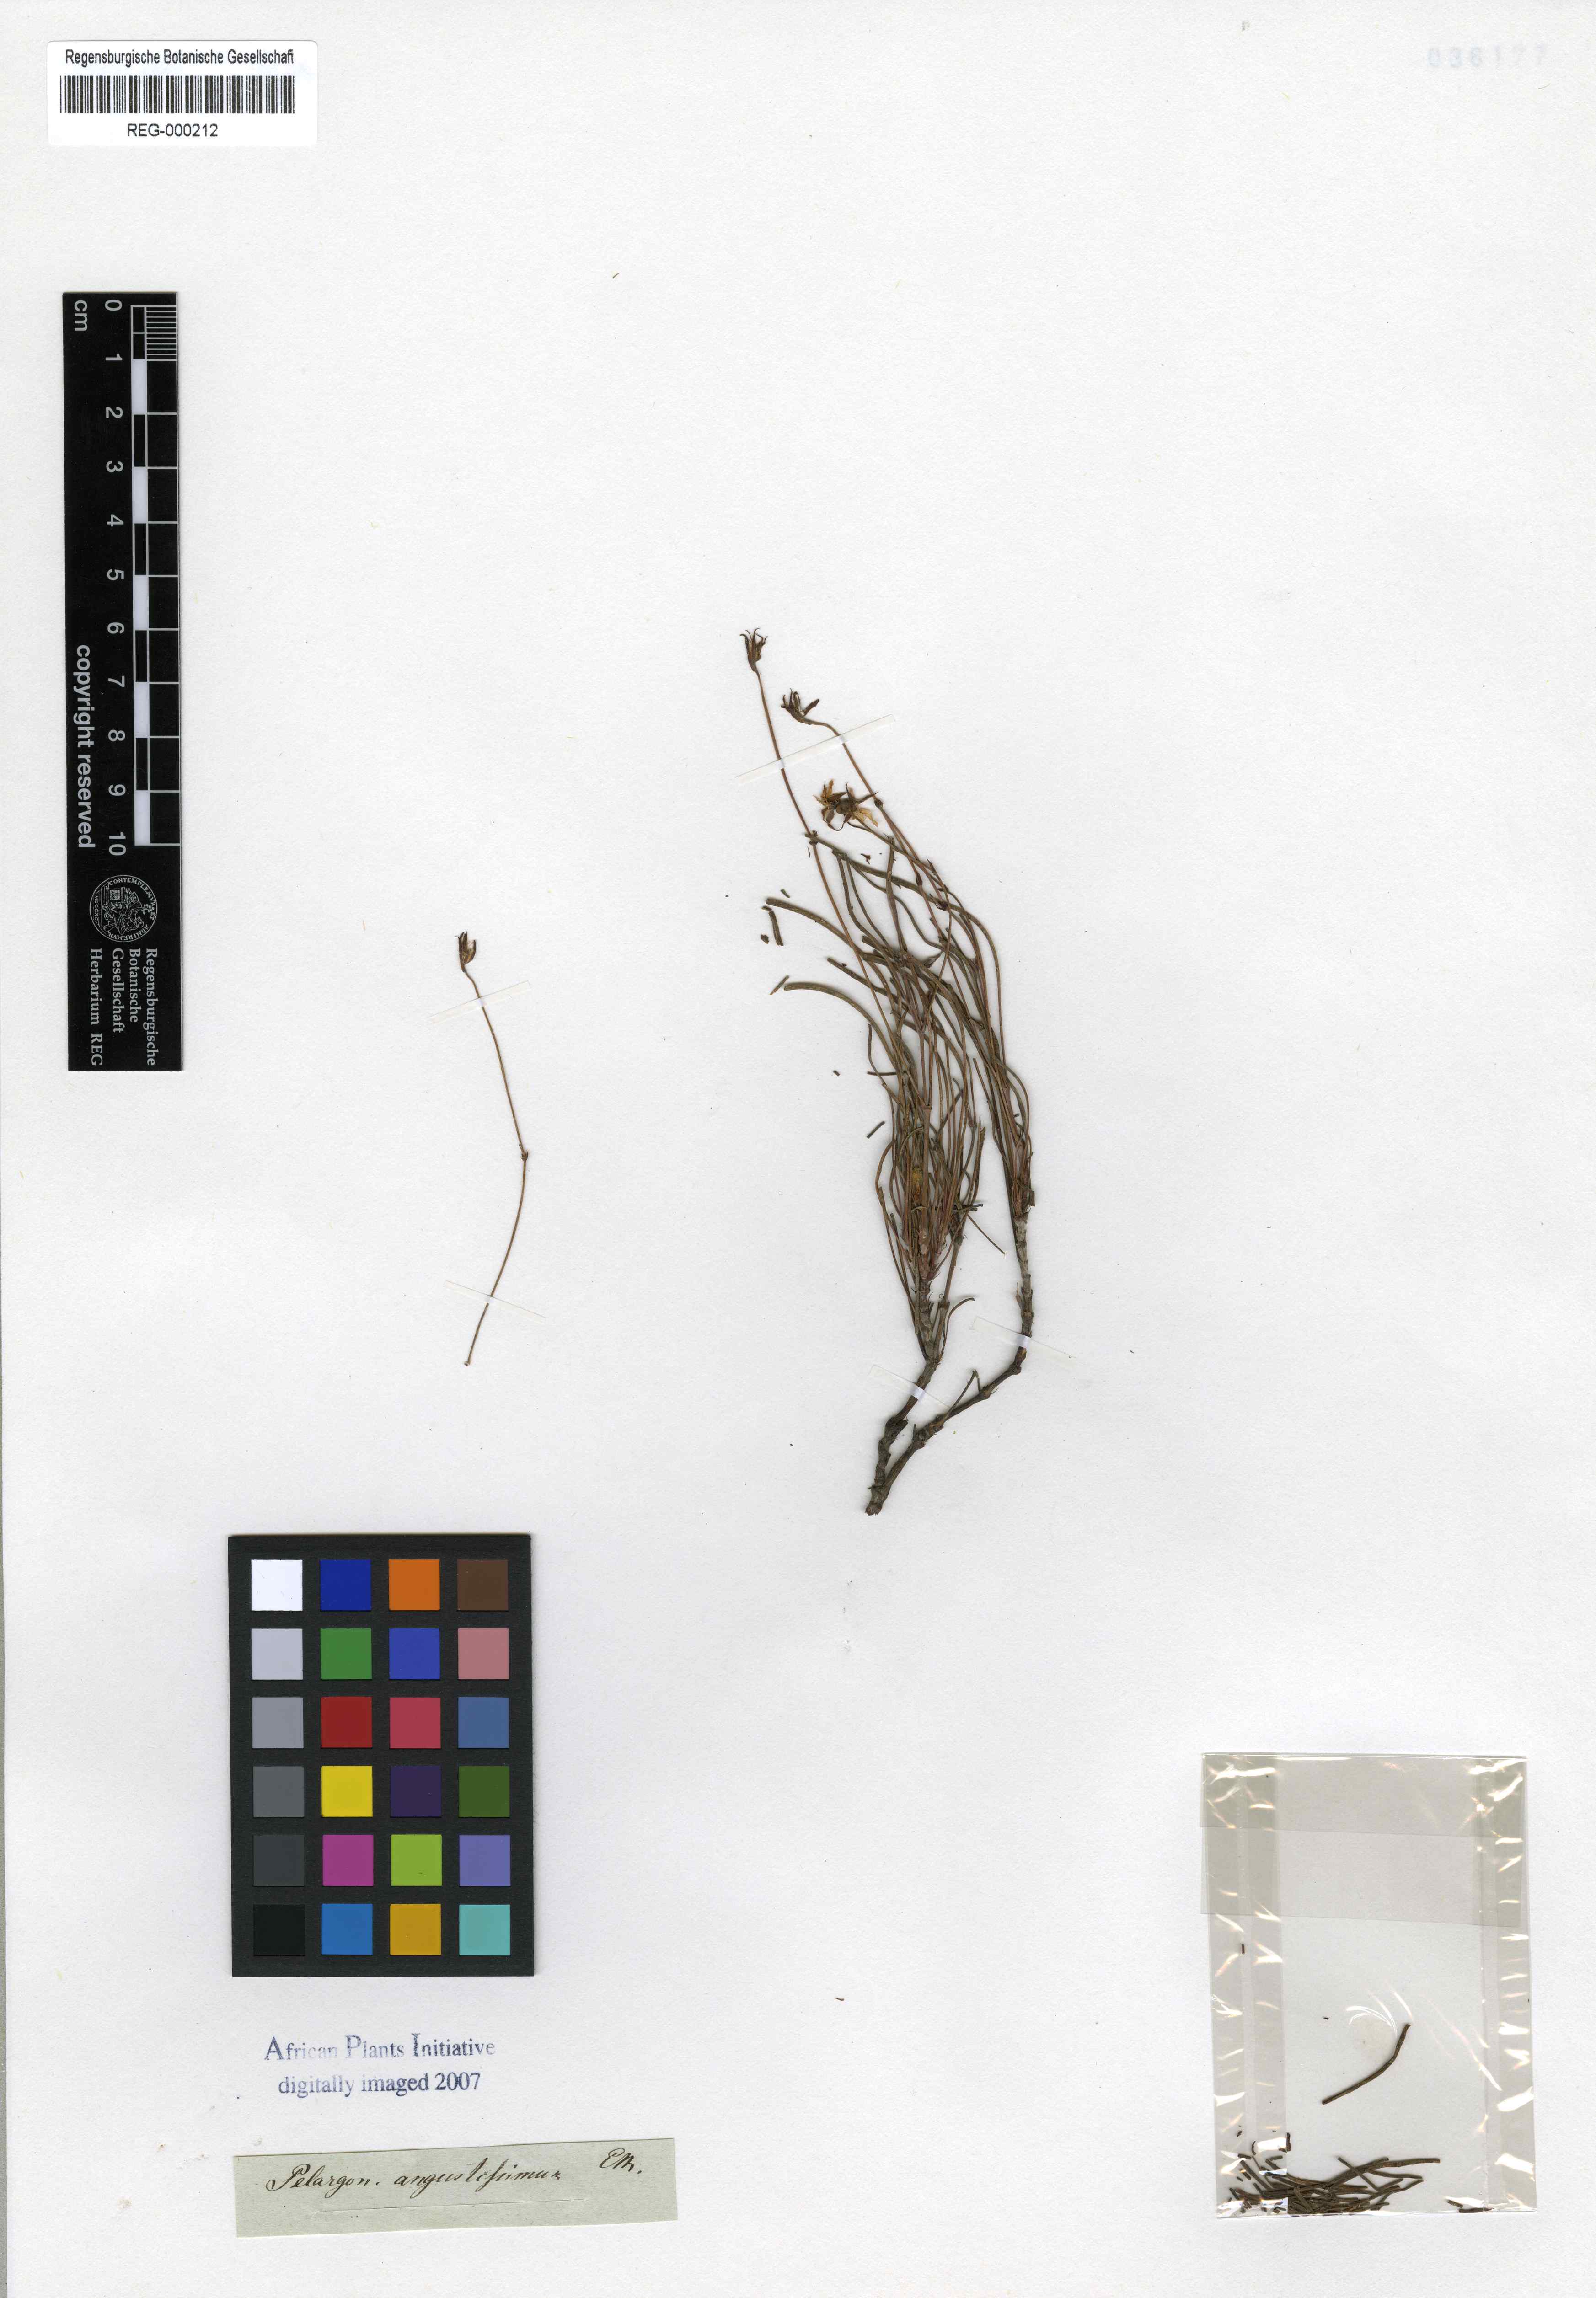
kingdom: Plantae
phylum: Tracheophyta
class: Magnoliopsida
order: Geraniales
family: Geraniaceae
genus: Pelargonium
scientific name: Pelargonium coronopifolium
